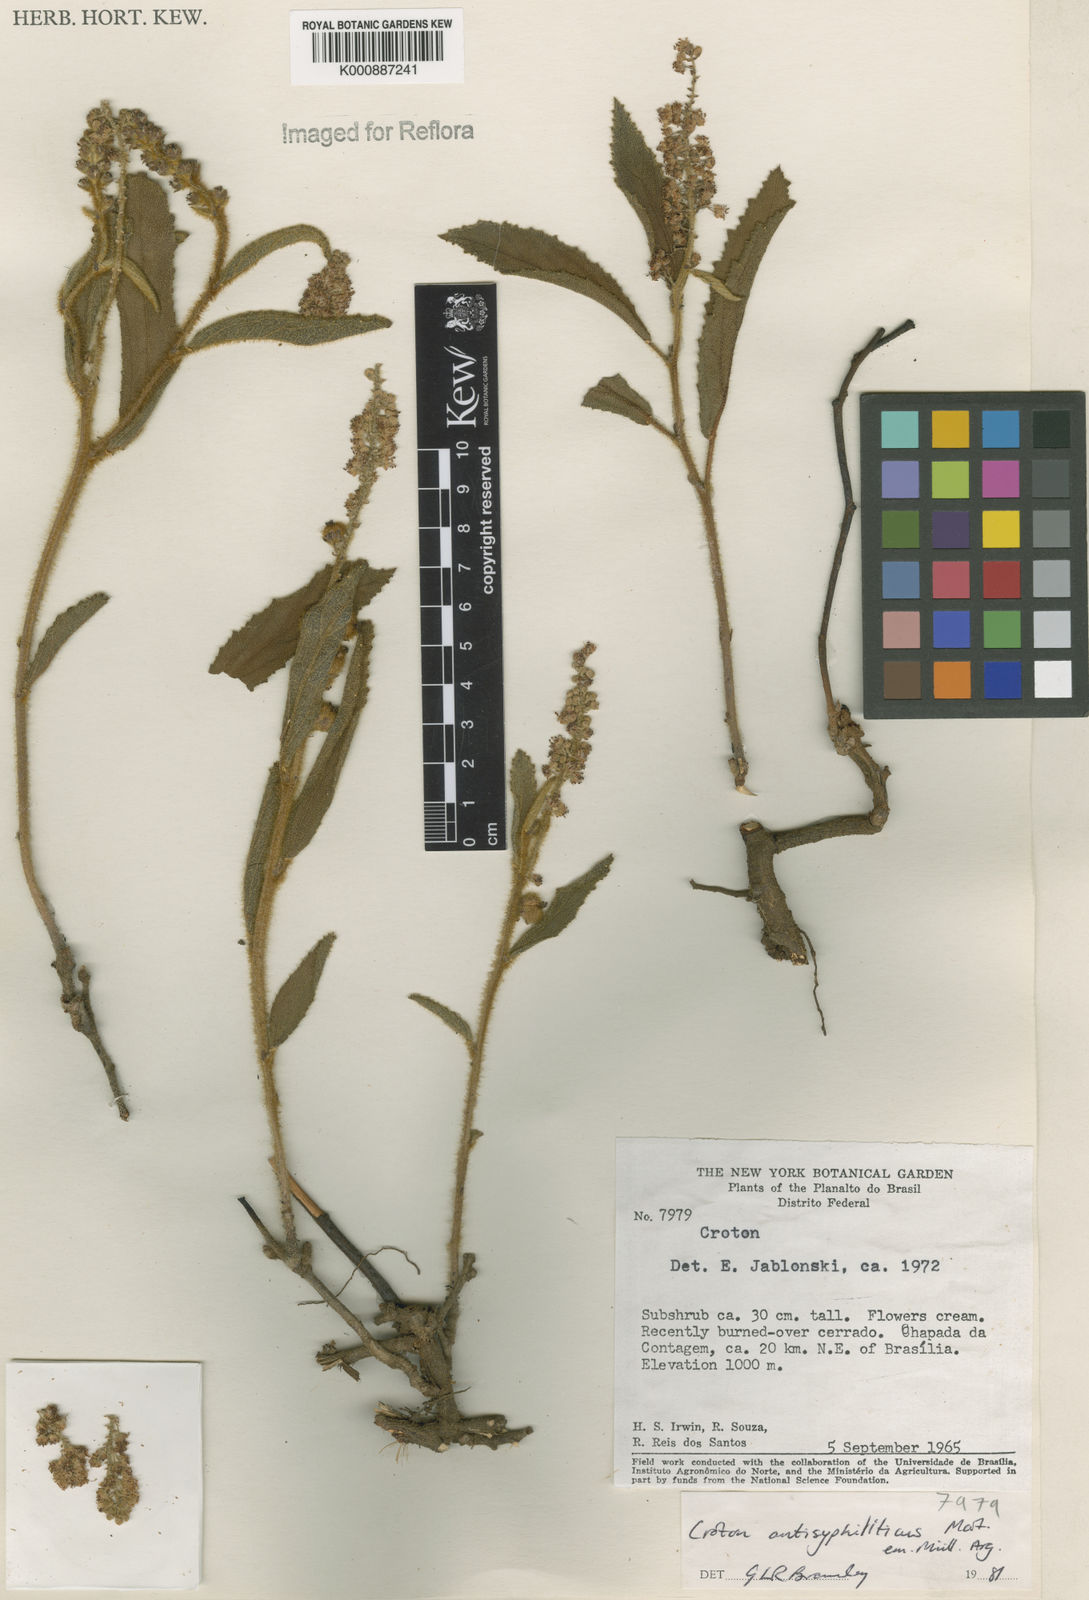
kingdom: Plantae
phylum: Tracheophyta
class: Magnoliopsida
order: Malpighiales
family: Euphorbiaceae
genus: Croton
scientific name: Croton antisyphiliticus
